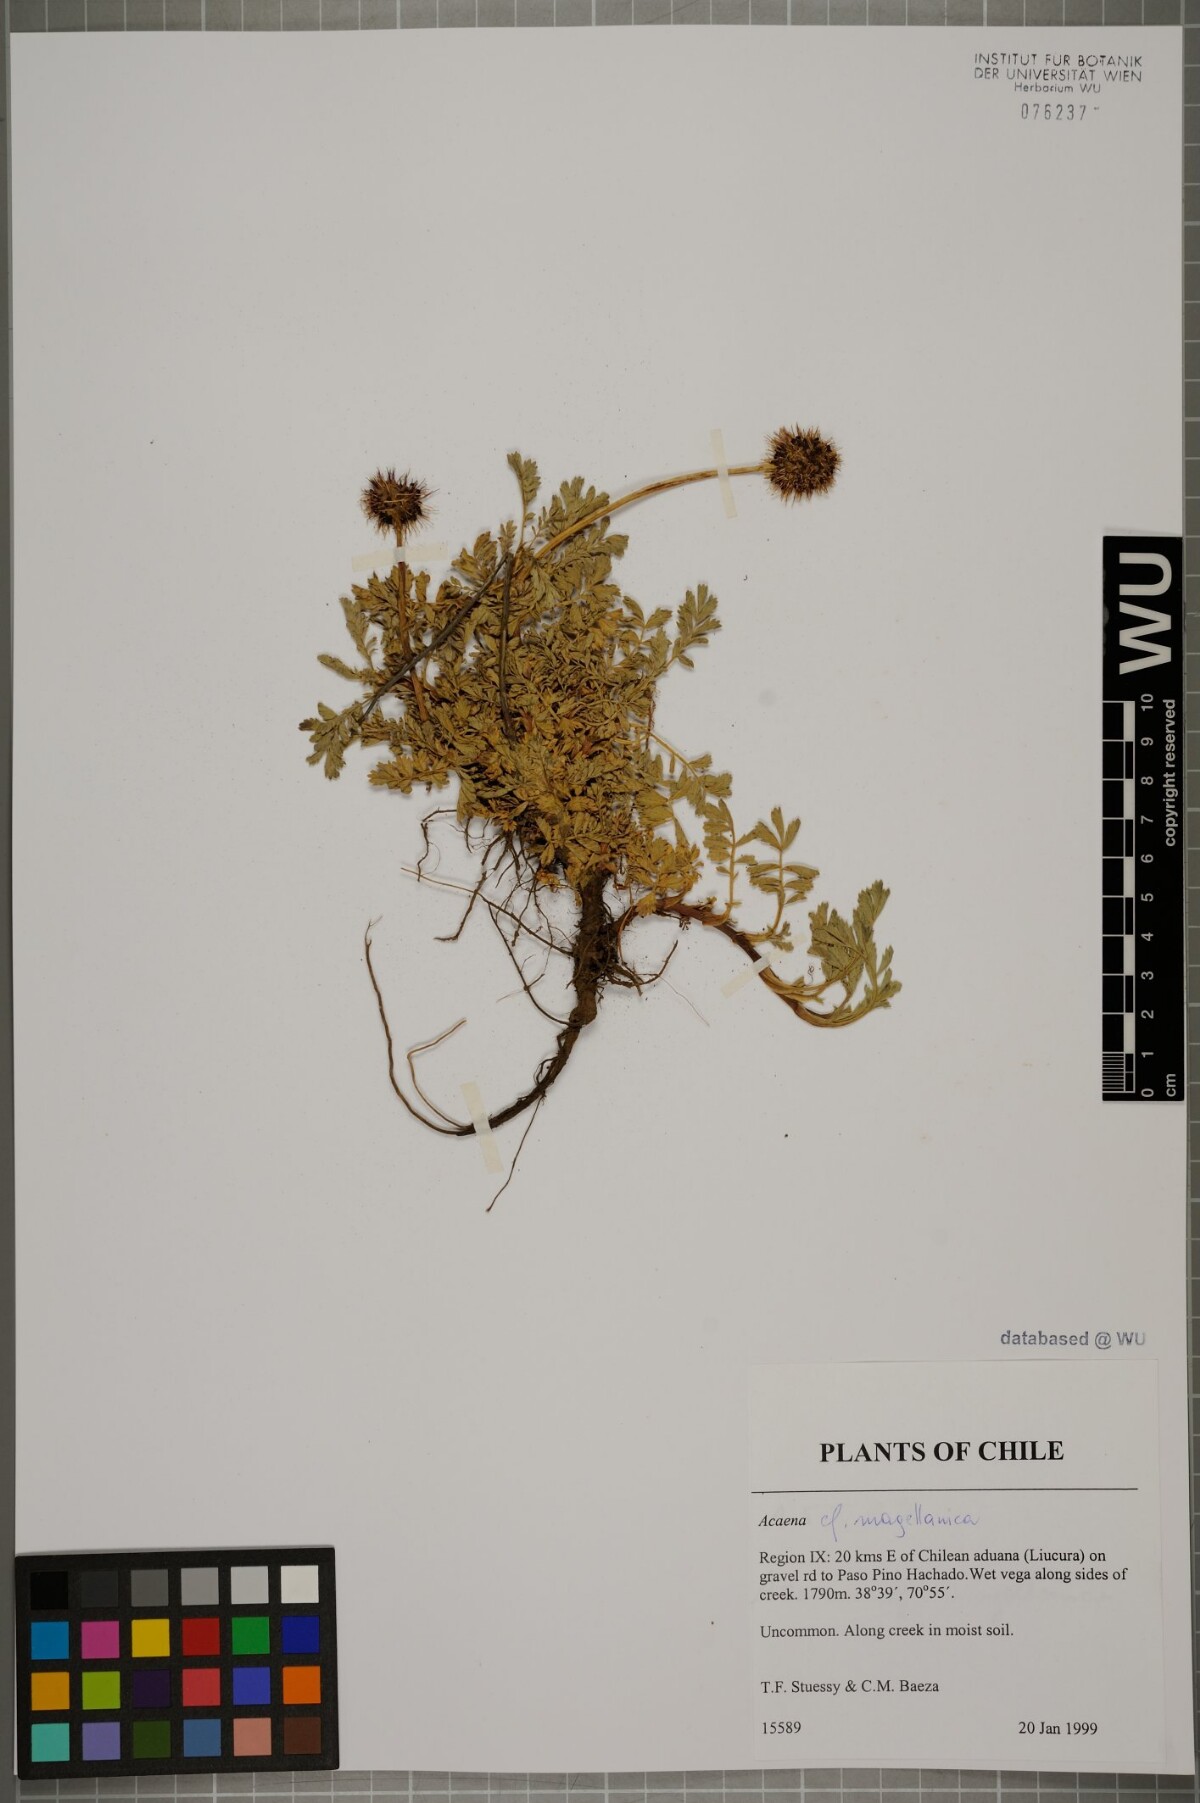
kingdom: Plantae
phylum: Tracheophyta
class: Magnoliopsida
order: Rosales
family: Rosaceae
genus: Acaena
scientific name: Acaena magellanica
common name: New zealand burr
